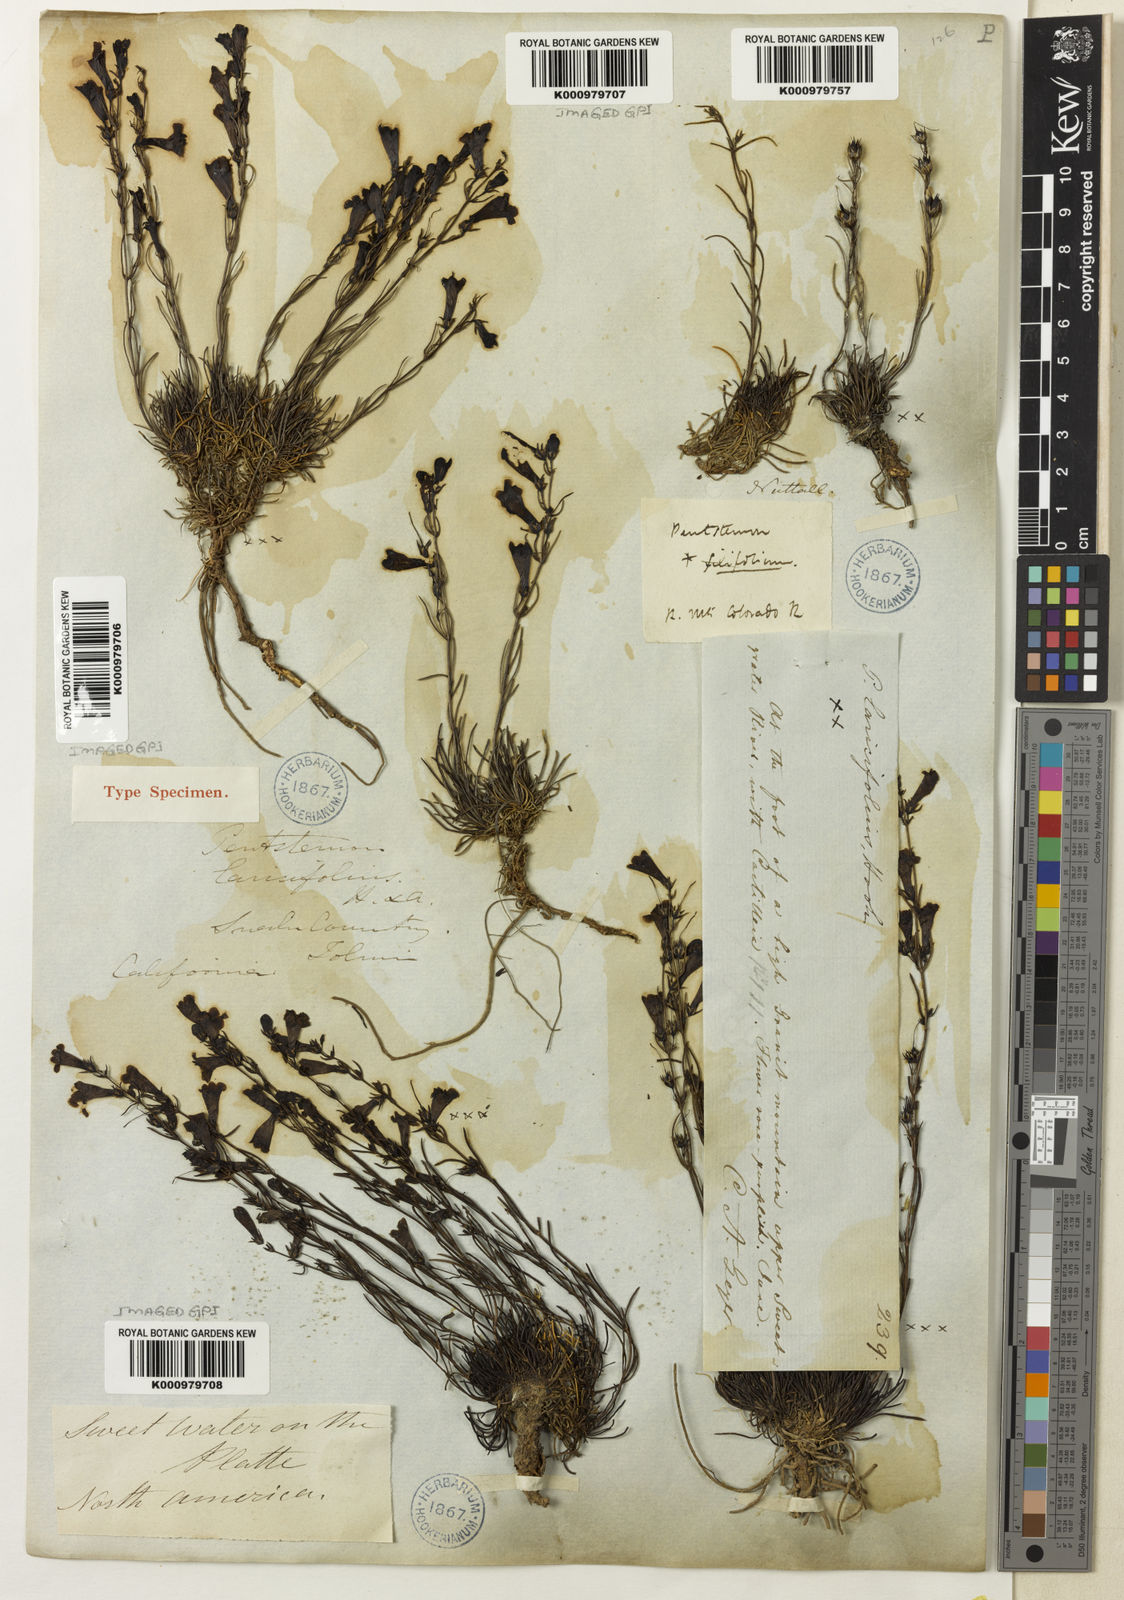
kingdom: Plantae
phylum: Tracheophyta
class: Magnoliopsida
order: Lamiales
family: Plantaginaceae
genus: Penstemon
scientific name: Penstemon laricifolius
